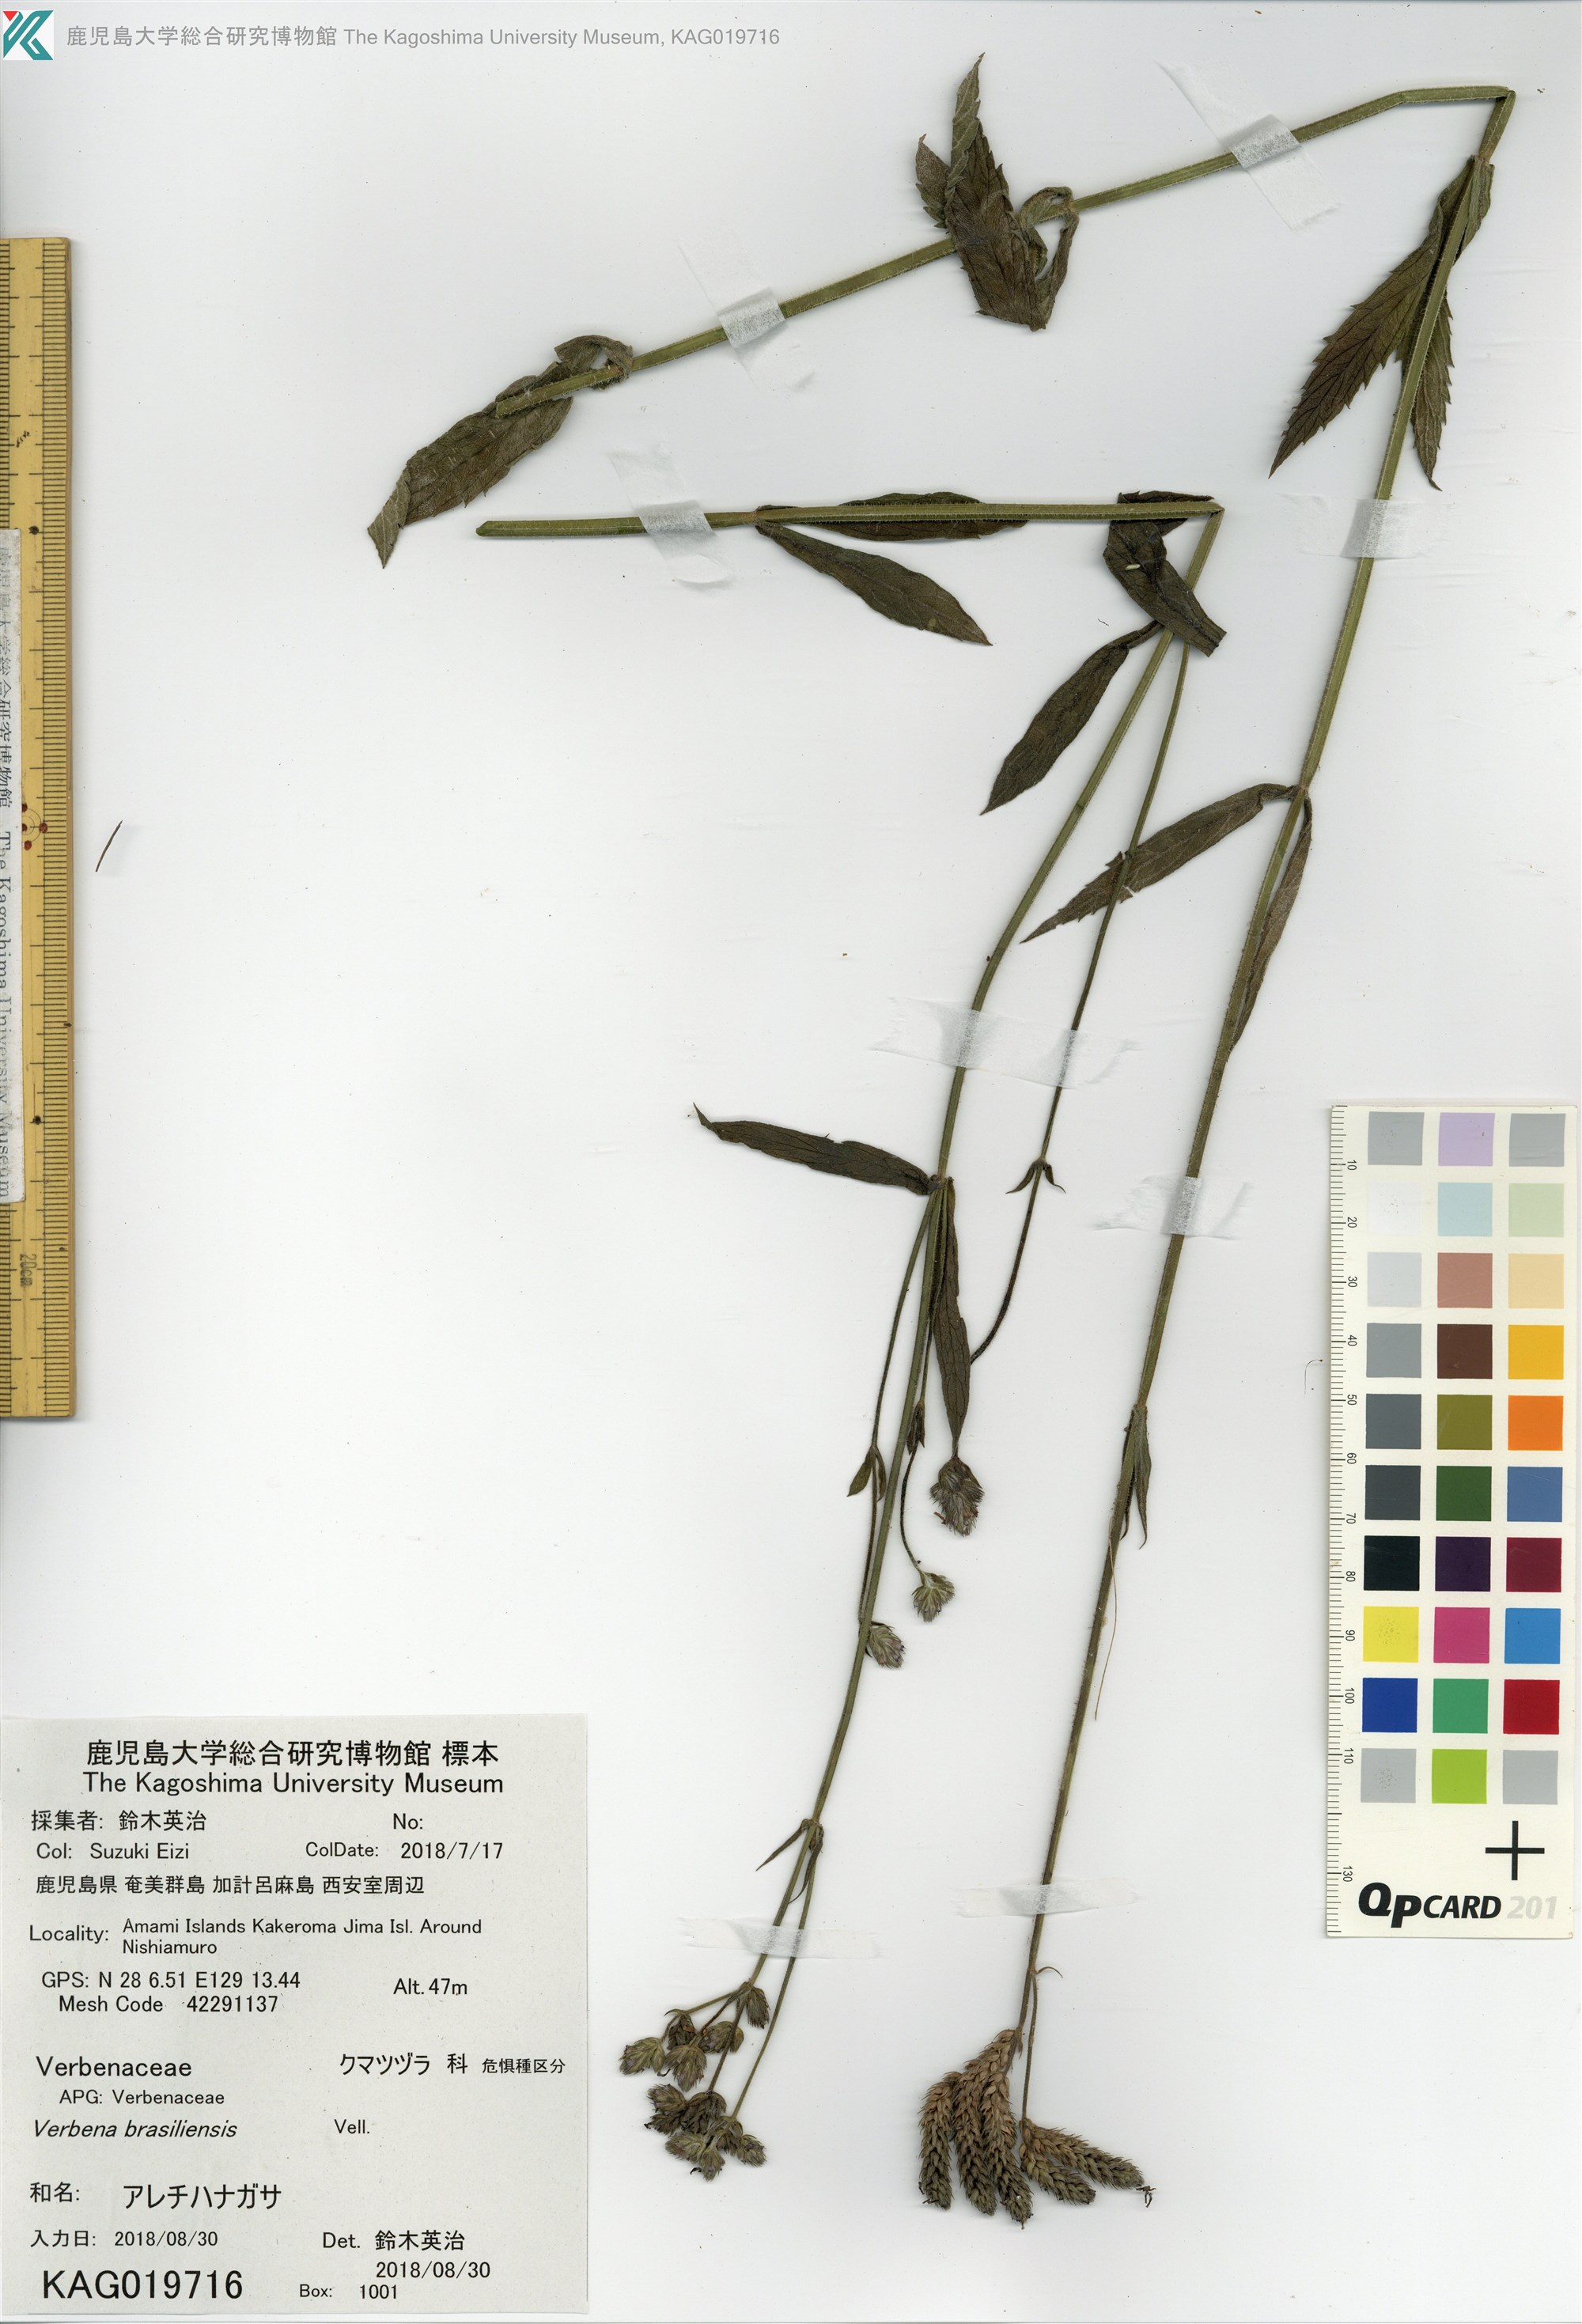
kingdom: Plantae
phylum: Tracheophyta
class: Magnoliopsida
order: Lamiales
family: Verbenaceae
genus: Verbena
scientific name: Verbena incompta
